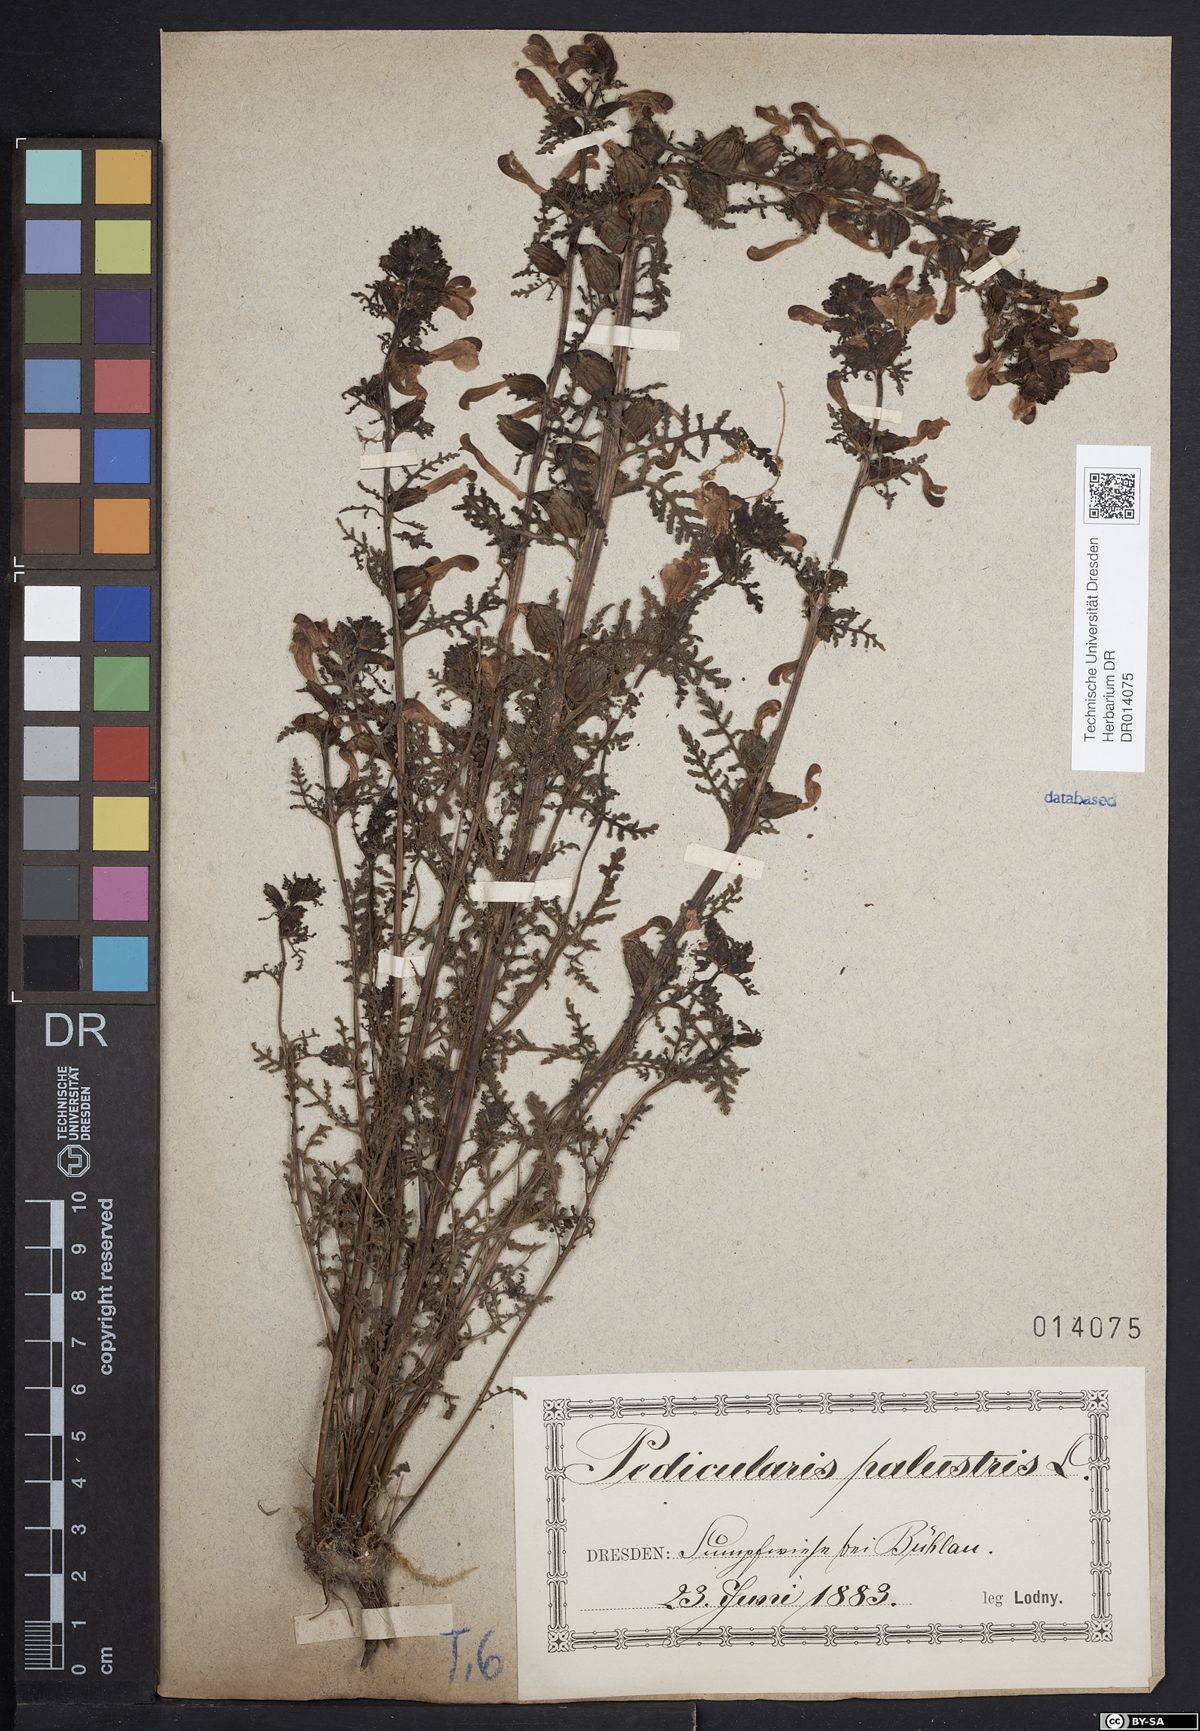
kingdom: Plantae
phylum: Tracheophyta
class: Magnoliopsida
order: Lamiales
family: Orobanchaceae
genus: Pedicularis
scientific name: Pedicularis palustris
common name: Marsh lousewort
